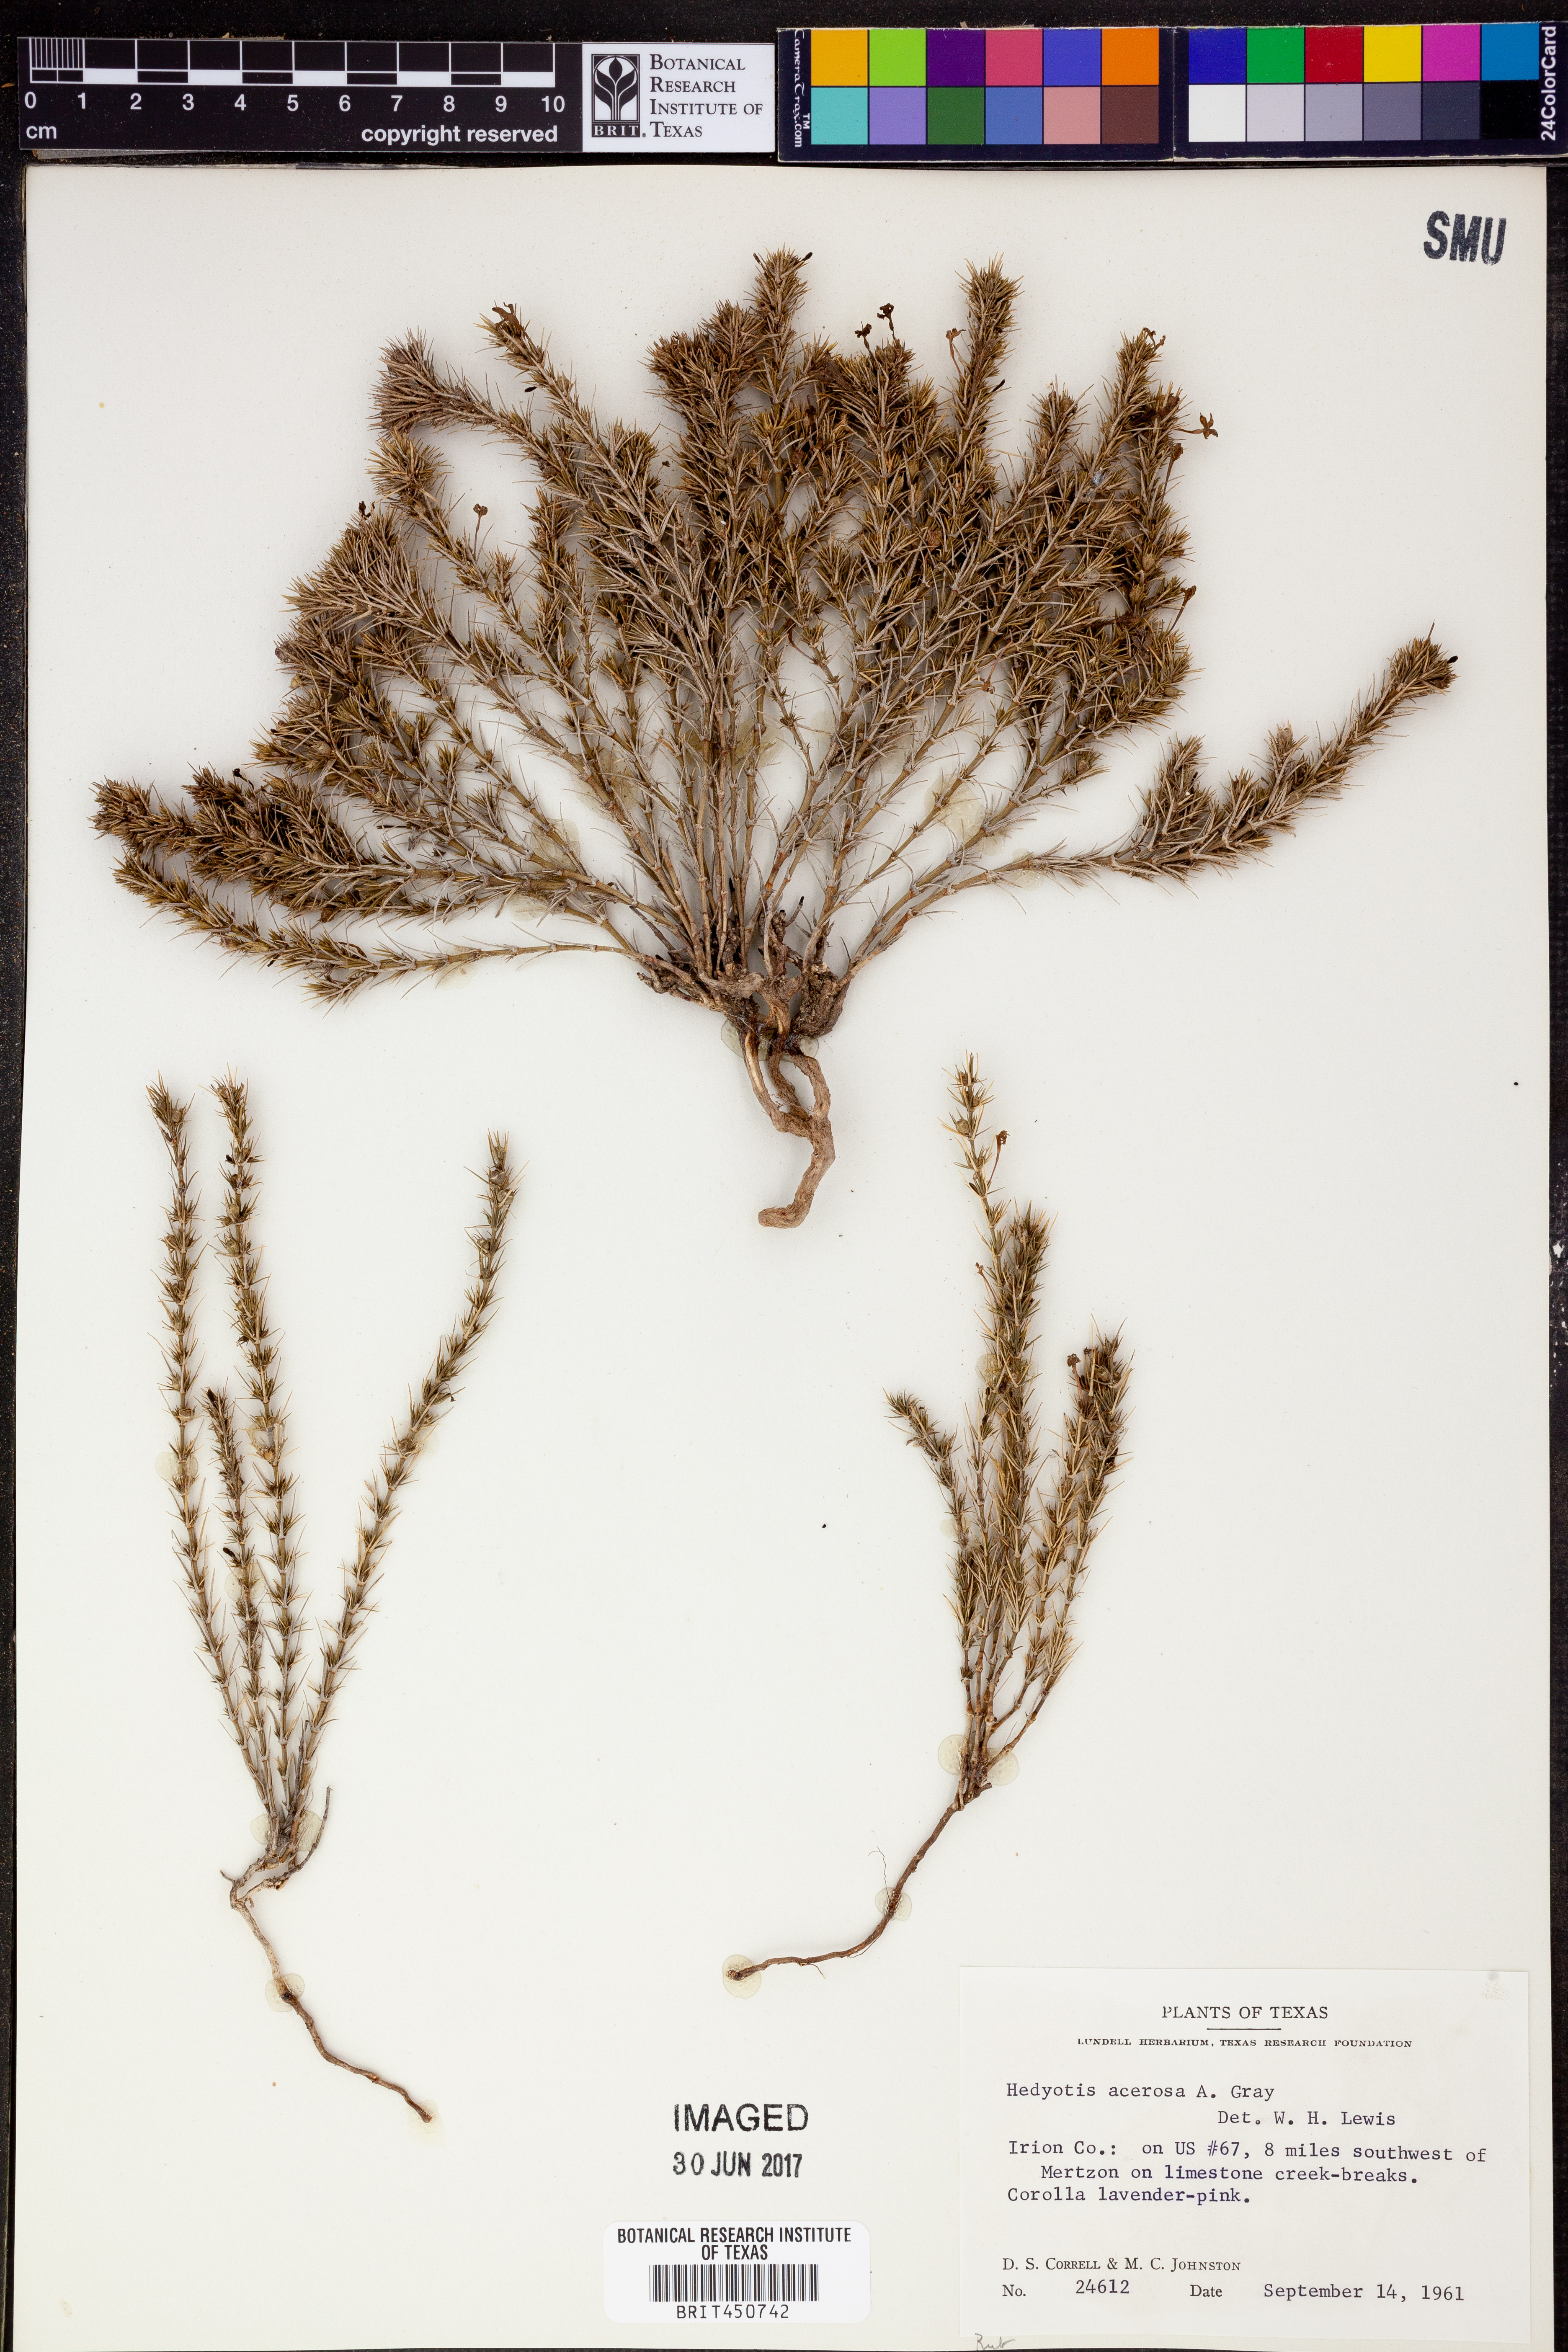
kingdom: Plantae
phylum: Tracheophyta
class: Magnoliopsida
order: Gentianales
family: Rubiaceae
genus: Houstonia
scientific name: Houstonia acerosa
